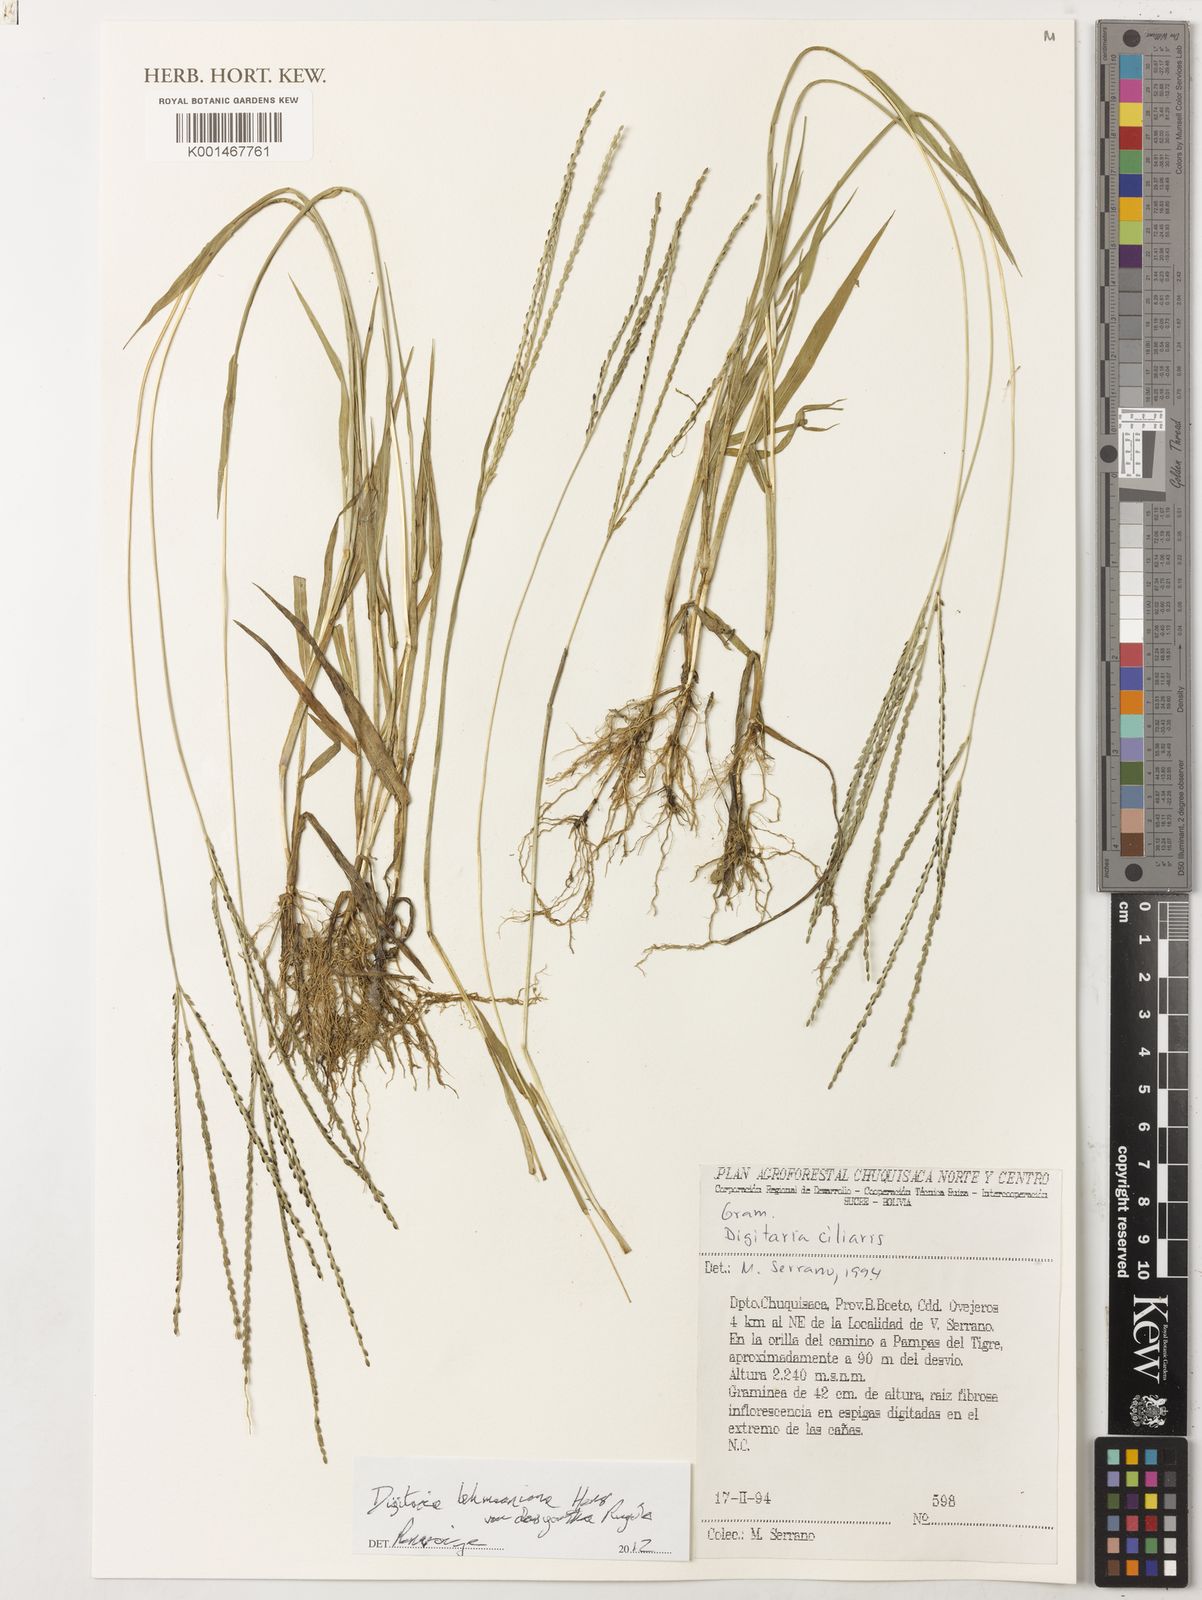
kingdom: Plantae
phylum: Tracheophyta
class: Liliopsida
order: Poales
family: Poaceae
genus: Digitaria
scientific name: Digitaria lehmanniana
